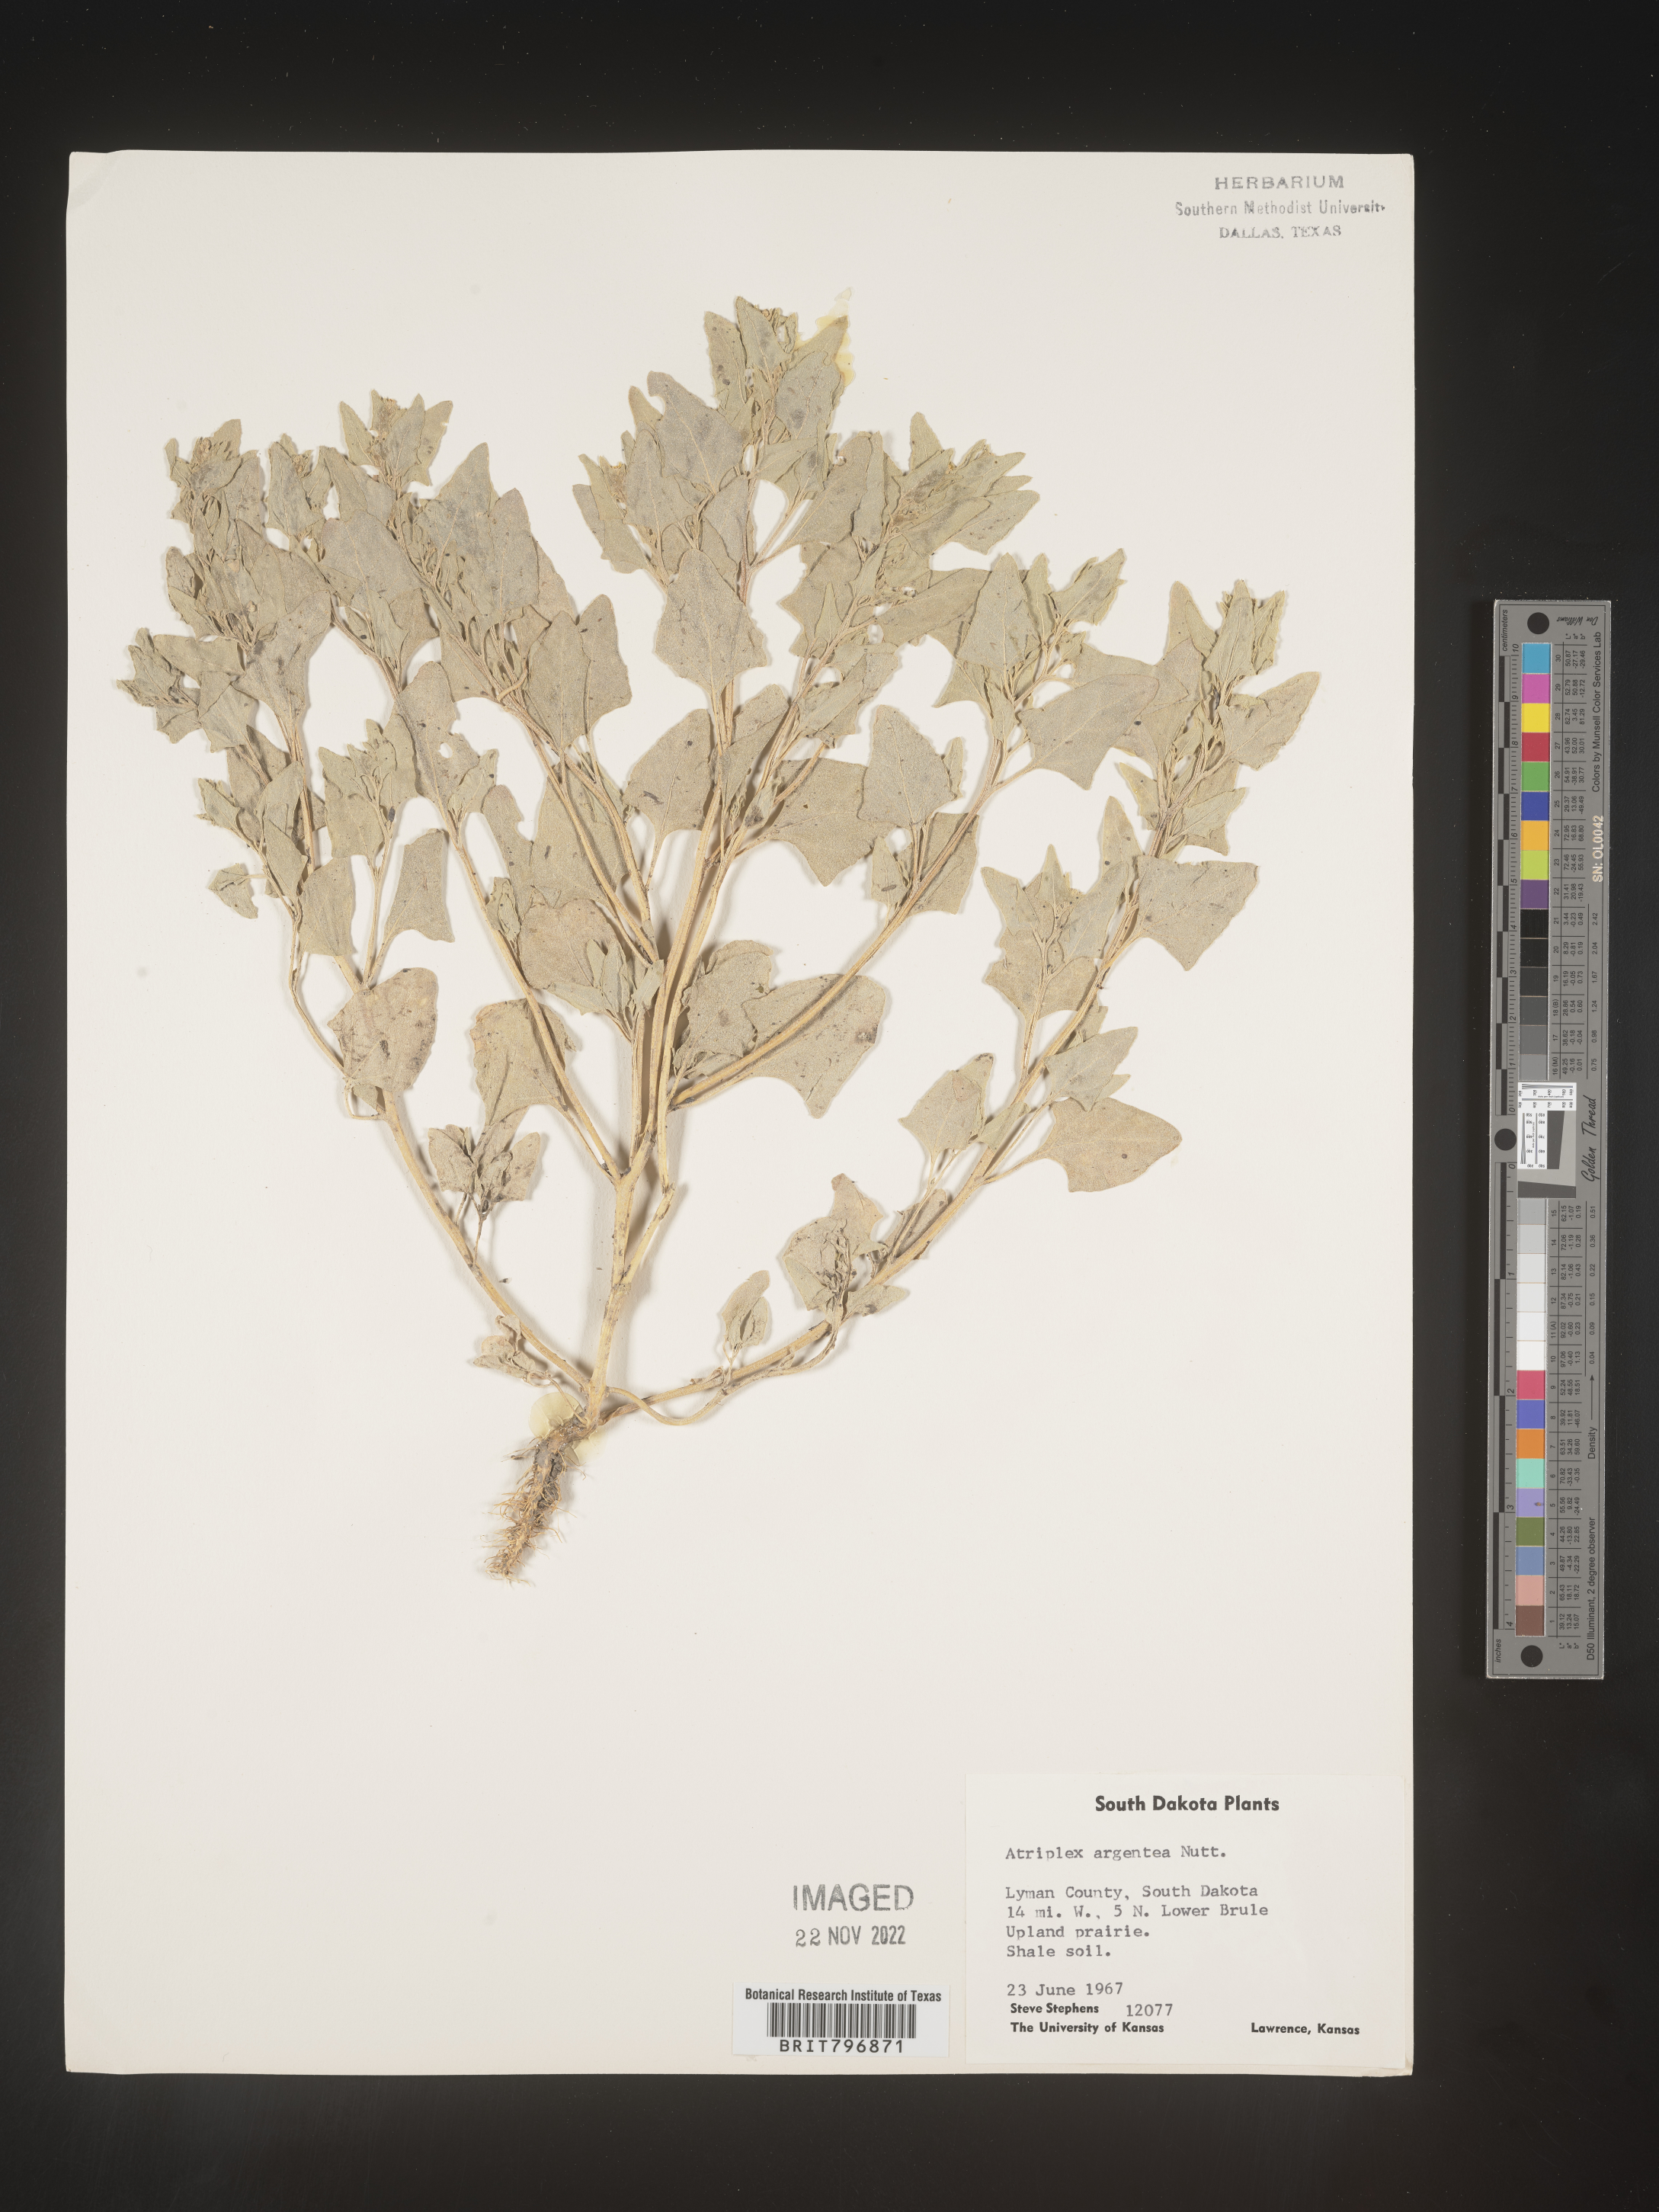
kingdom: Plantae
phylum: Tracheophyta
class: Magnoliopsida
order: Caryophyllales
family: Amaranthaceae
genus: Atriplex
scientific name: Atriplex argentea
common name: Silverscale
